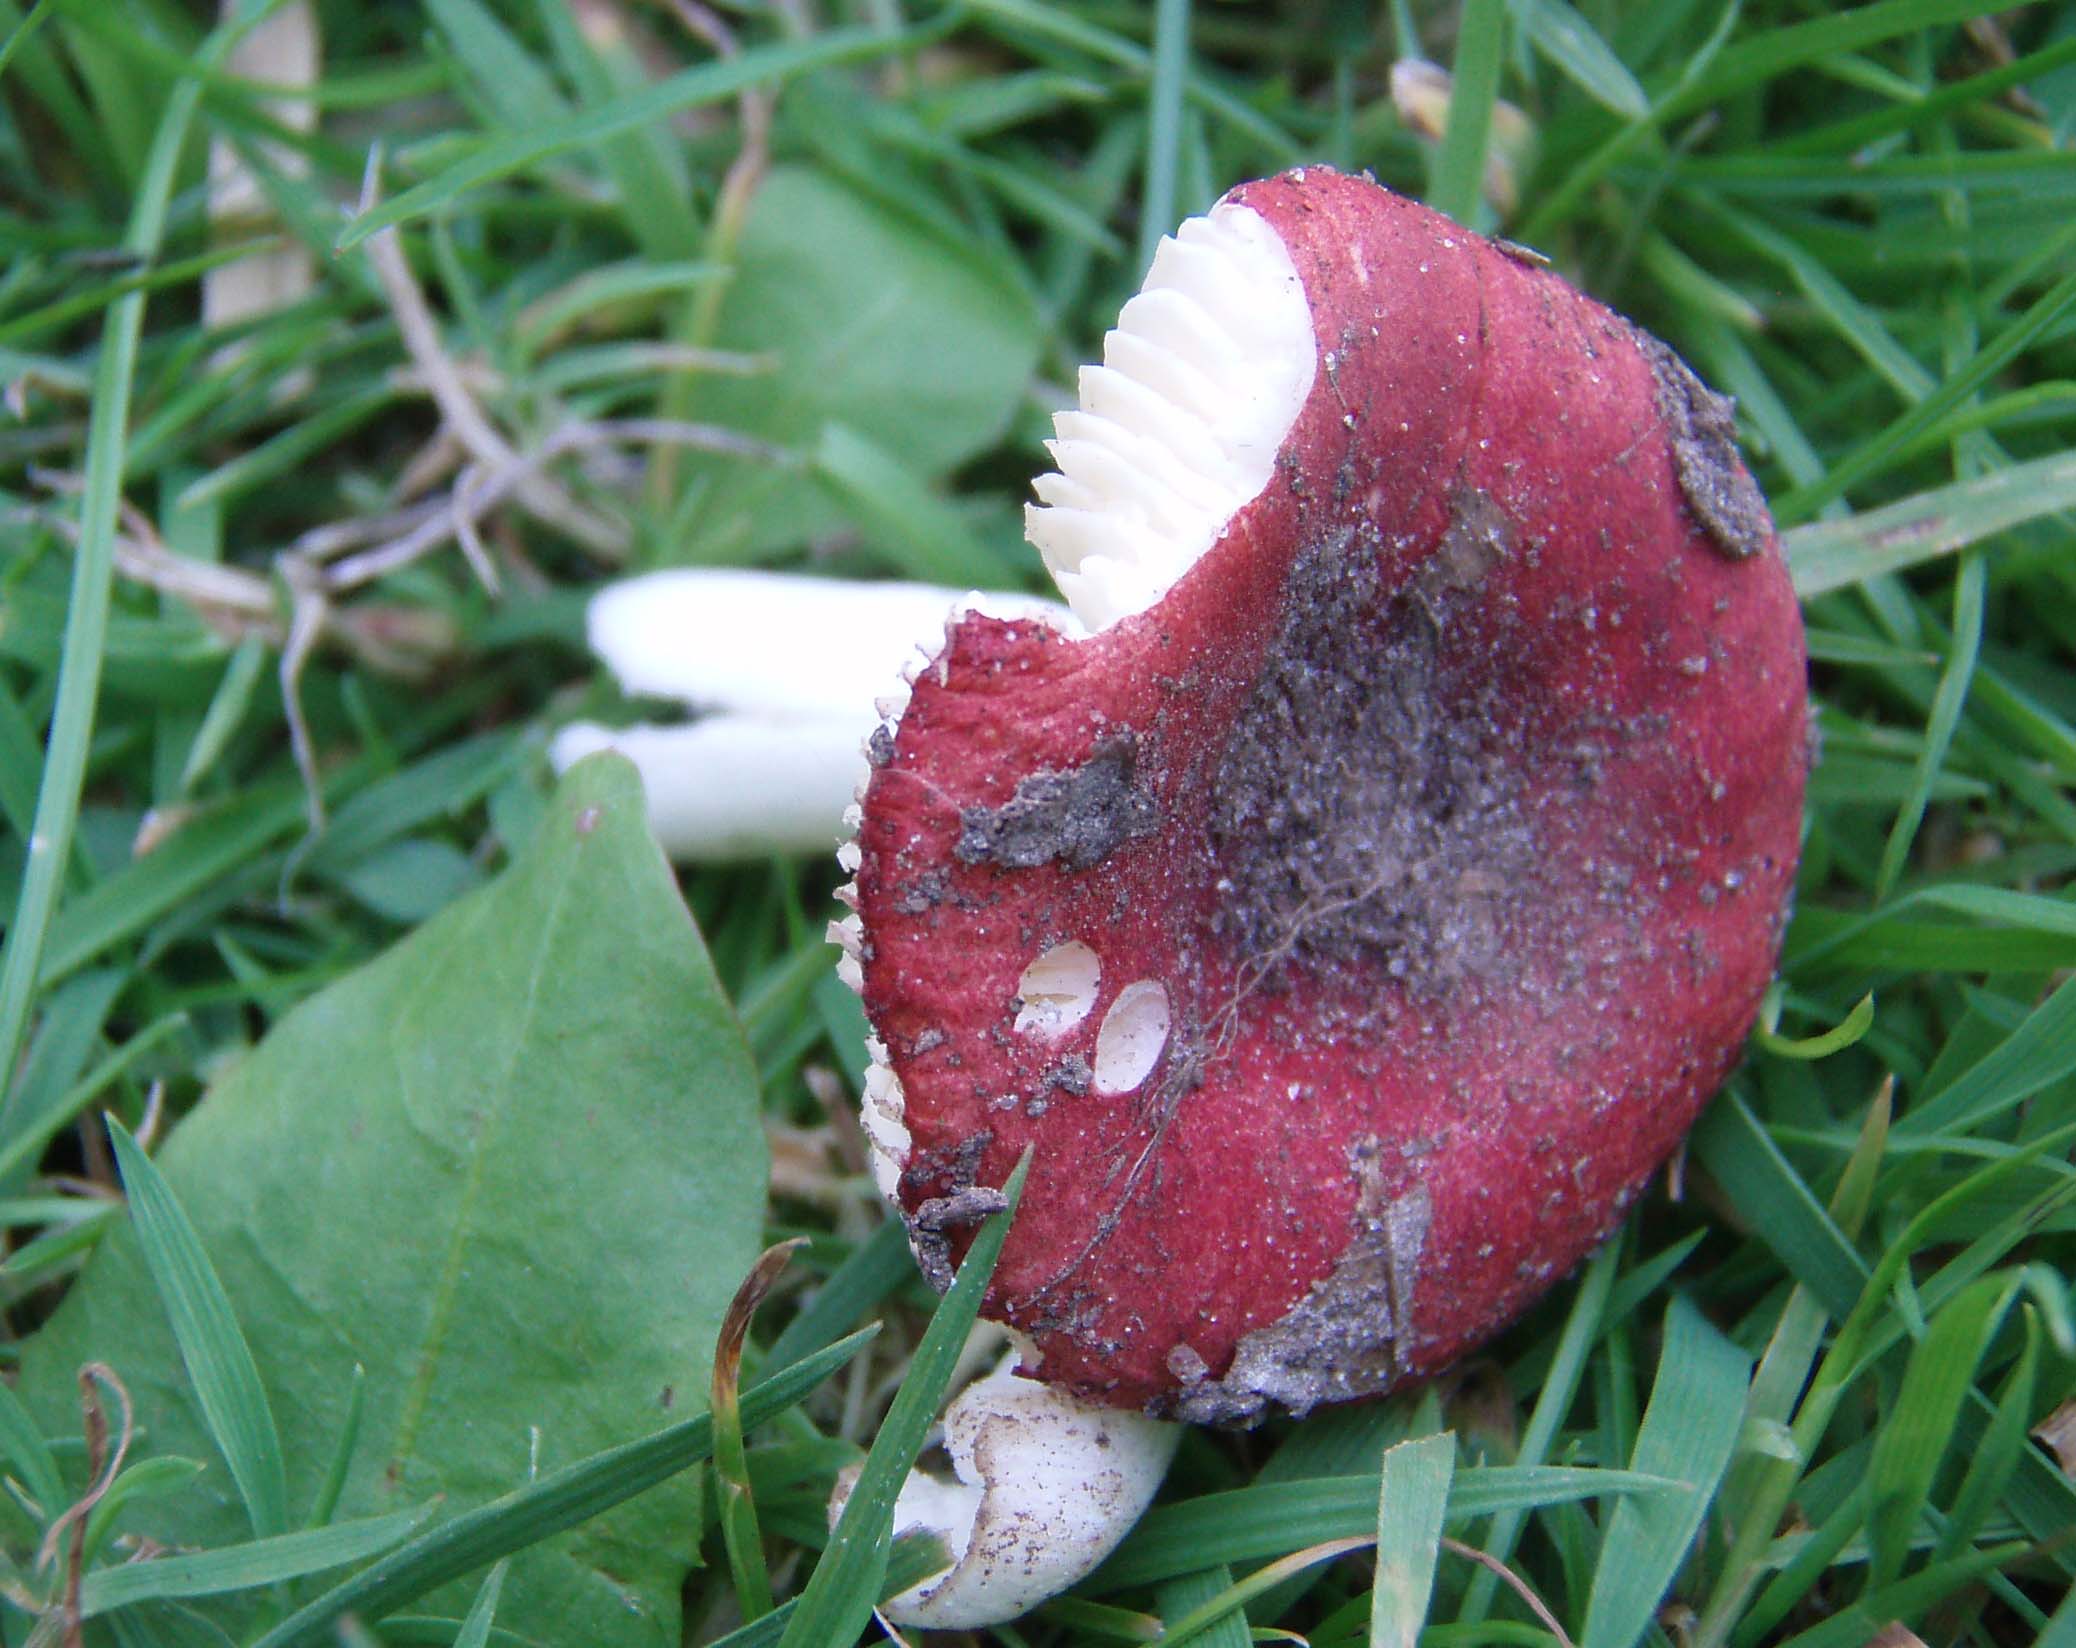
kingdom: Fungi
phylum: Basidiomycota
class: Agaricomycetes
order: Russulales
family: Russulaceae
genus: Russula
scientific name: Russula melzeri
